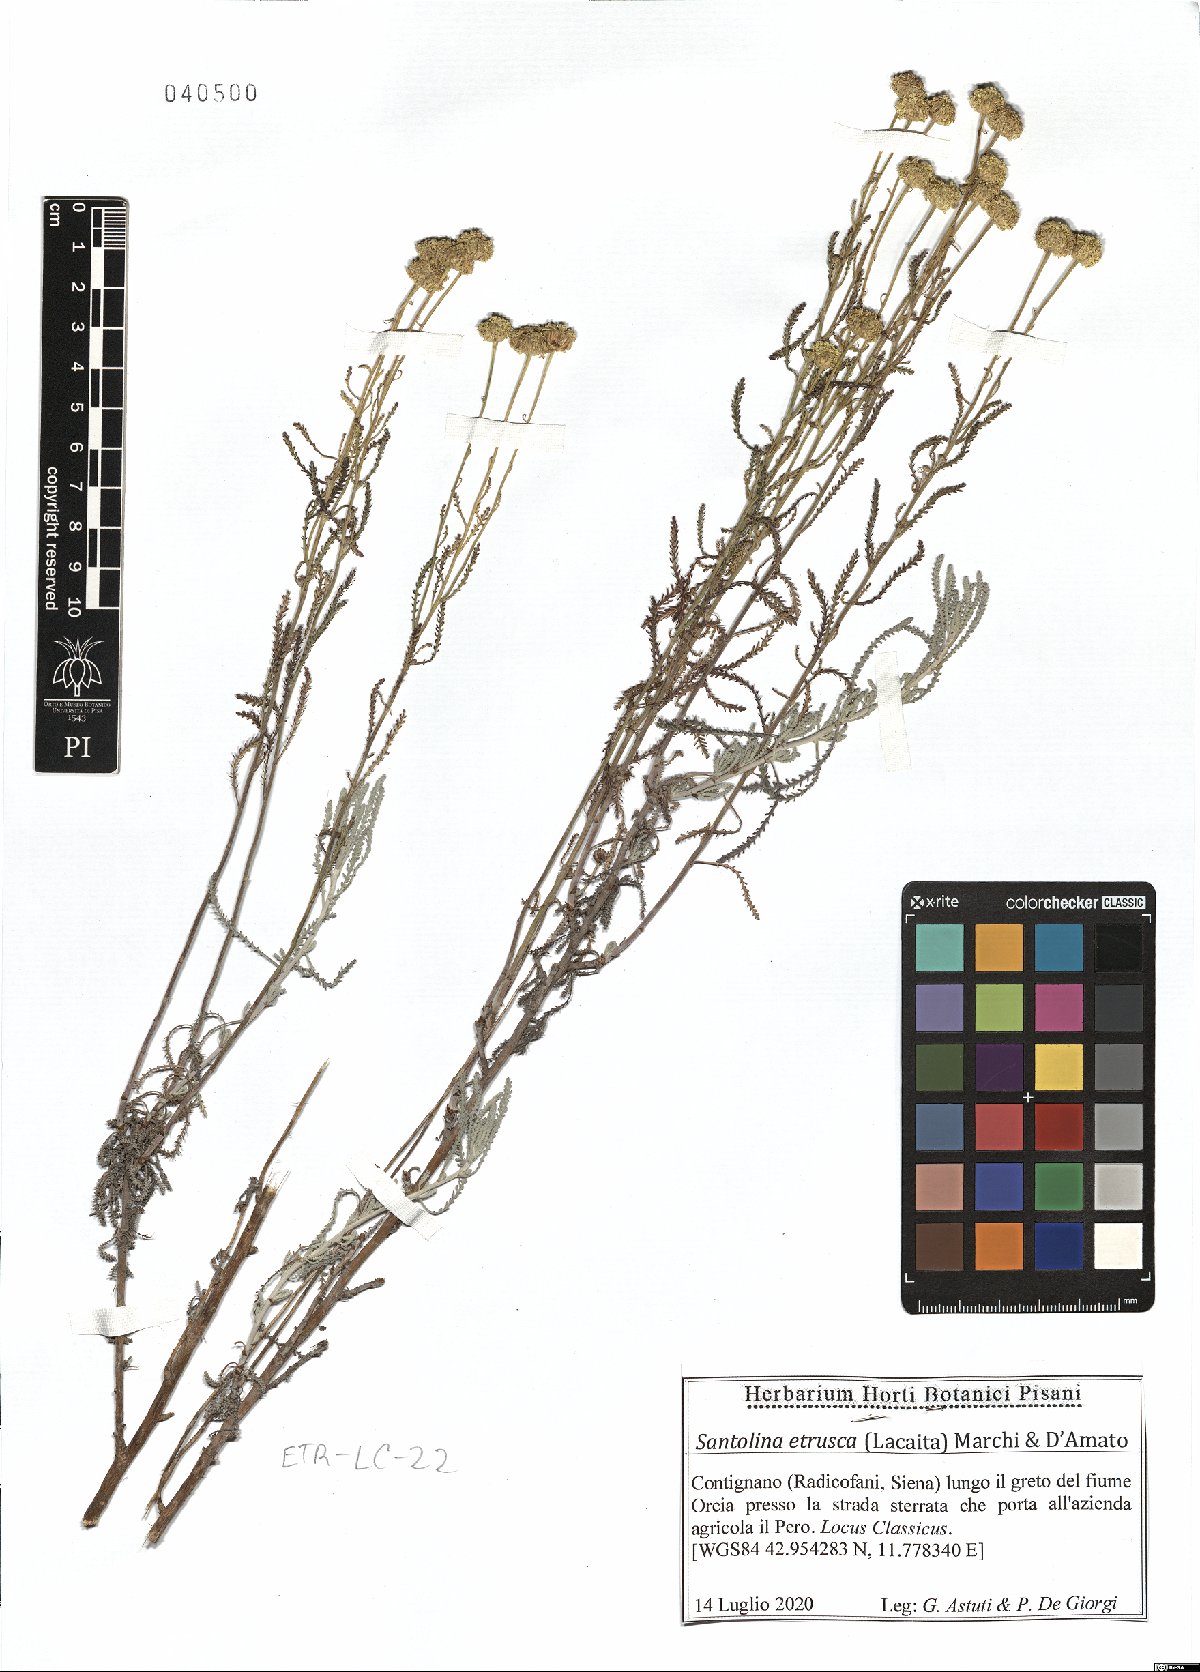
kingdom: Plantae
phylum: Tracheophyta
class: Magnoliopsida
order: Asterales
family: Asteraceae
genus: Santolina
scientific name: Santolina etrusca
